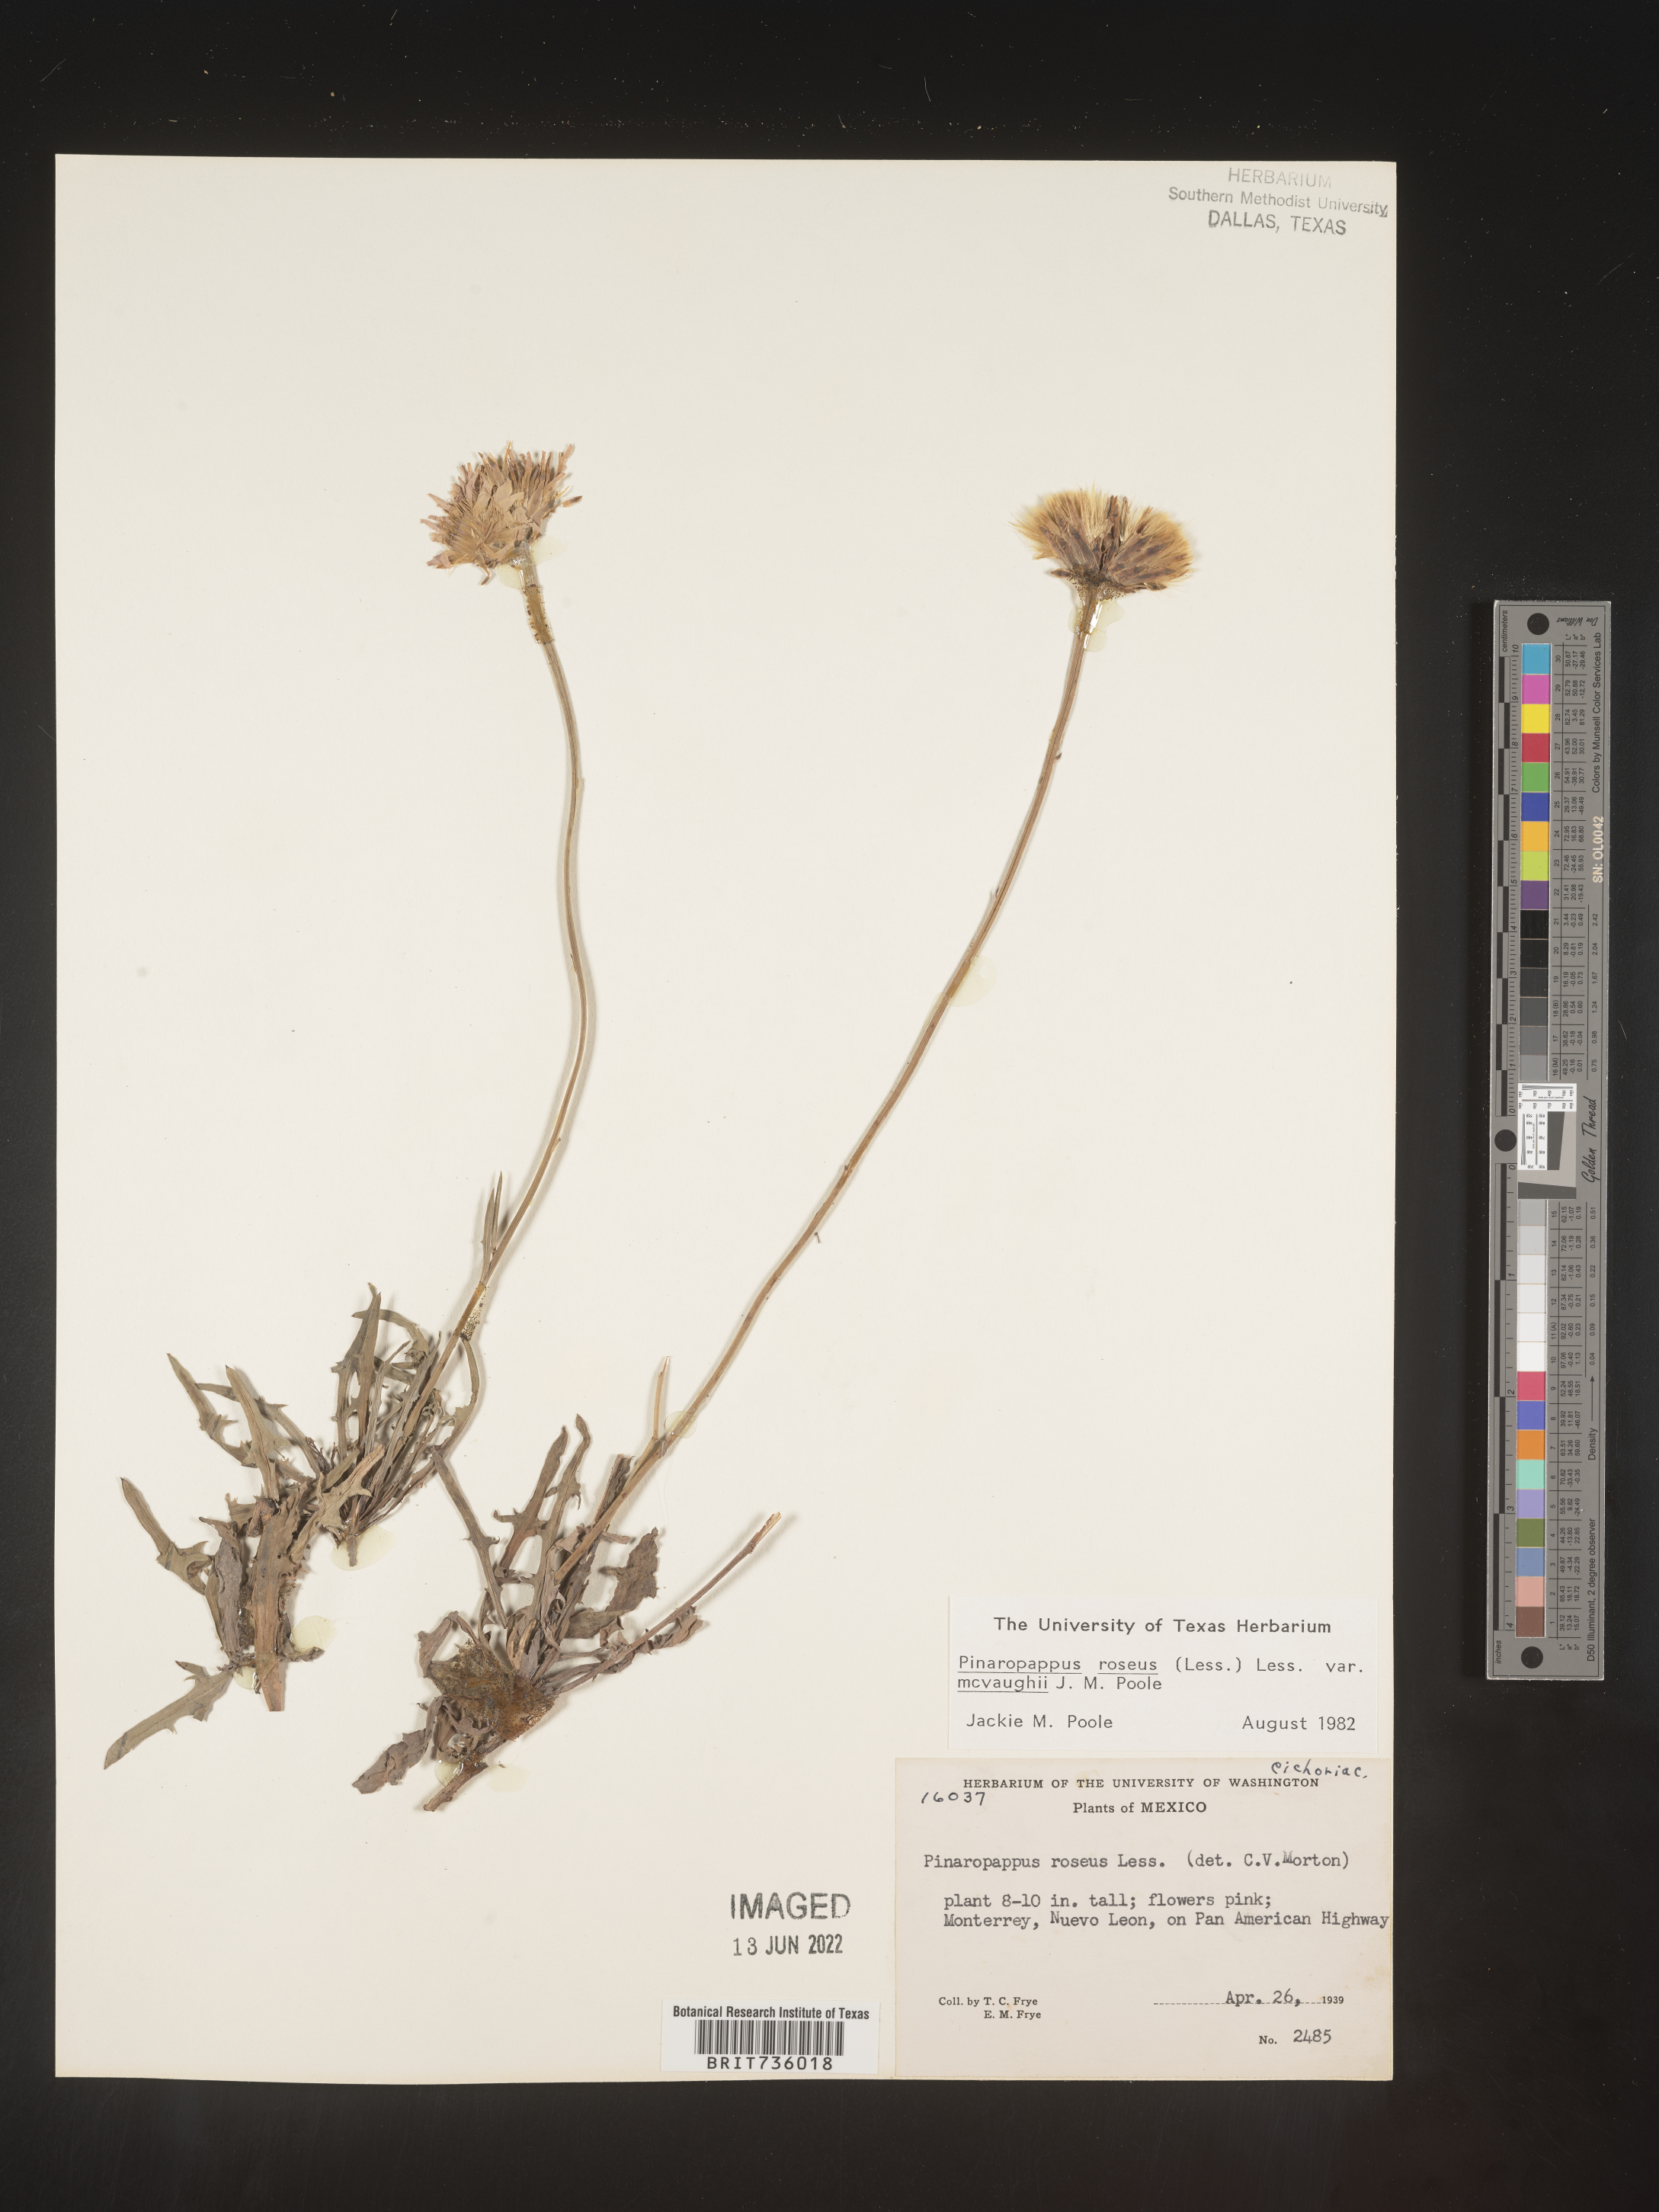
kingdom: Plantae
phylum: Tracheophyta
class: Magnoliopsida
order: Asterales
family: Asteraceae
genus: Pinaropappus
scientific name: Pinaropappus
